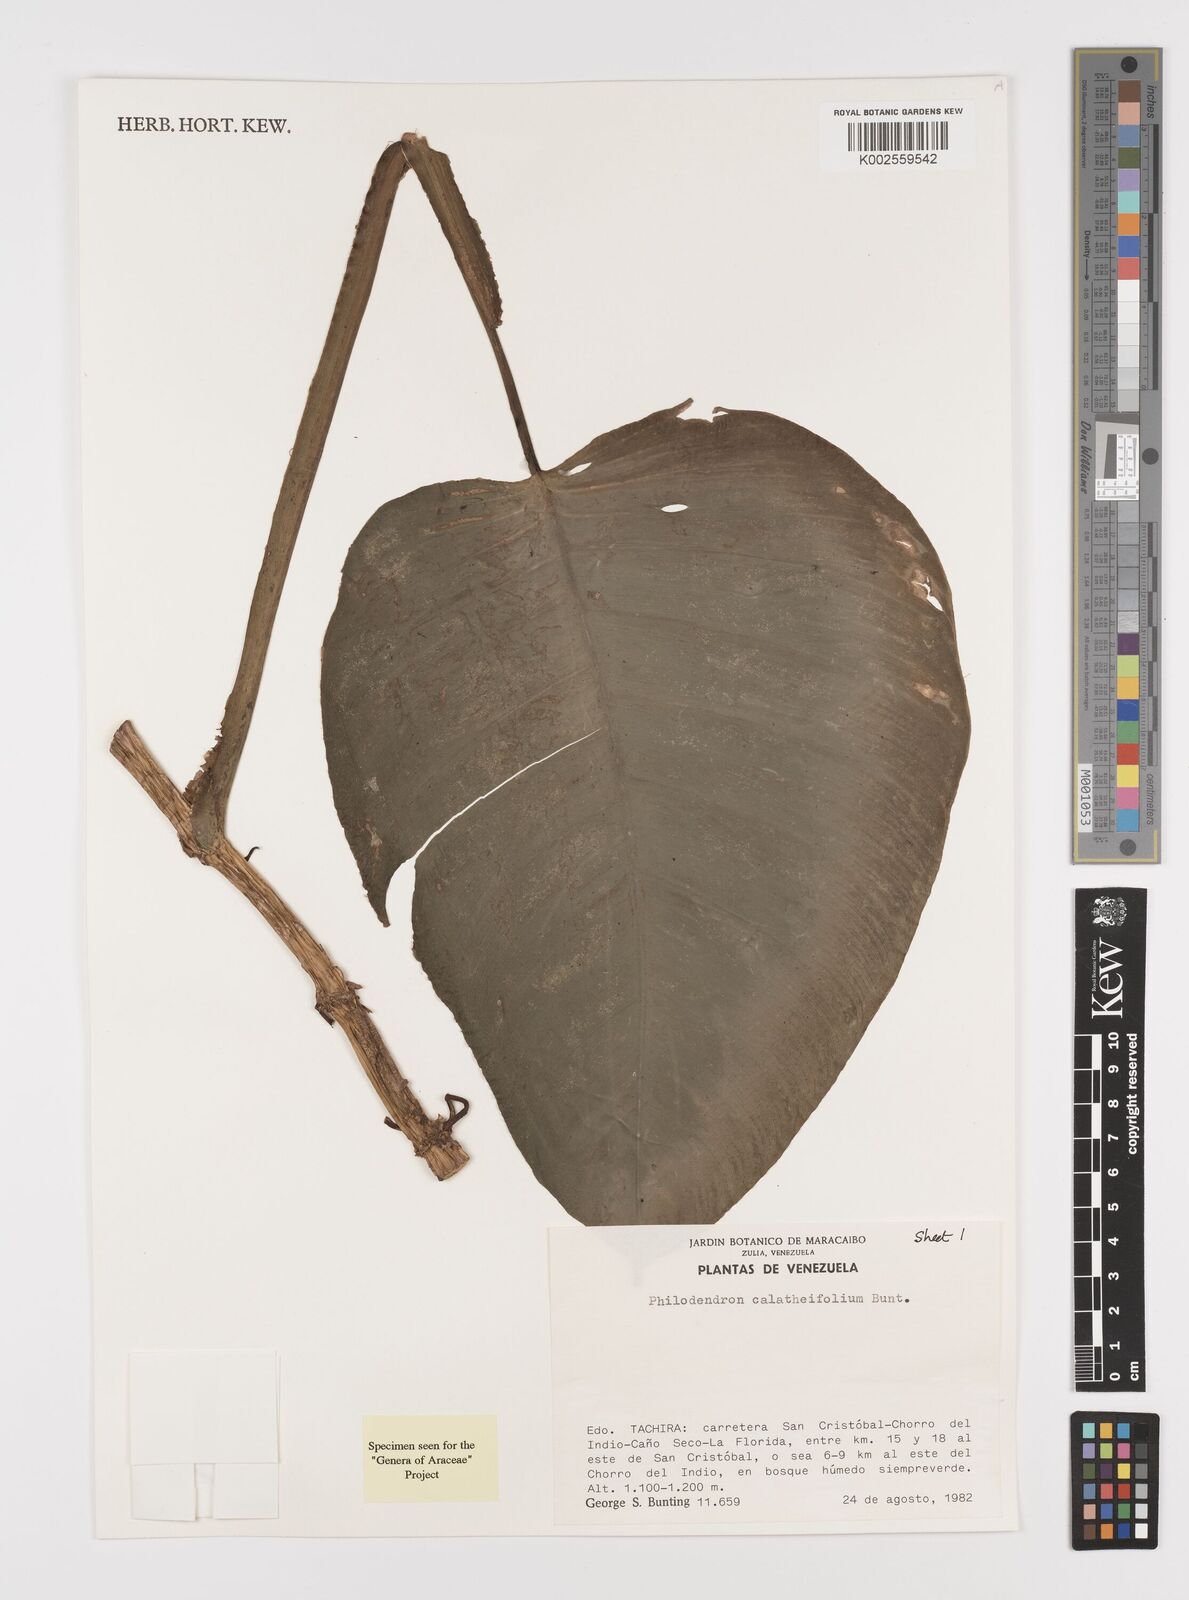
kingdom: Plantae
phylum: Tracheophyta
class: Liliopsida
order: Alismatales
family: Araceae
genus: Philodendron
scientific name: Philodendron calatheifolium
